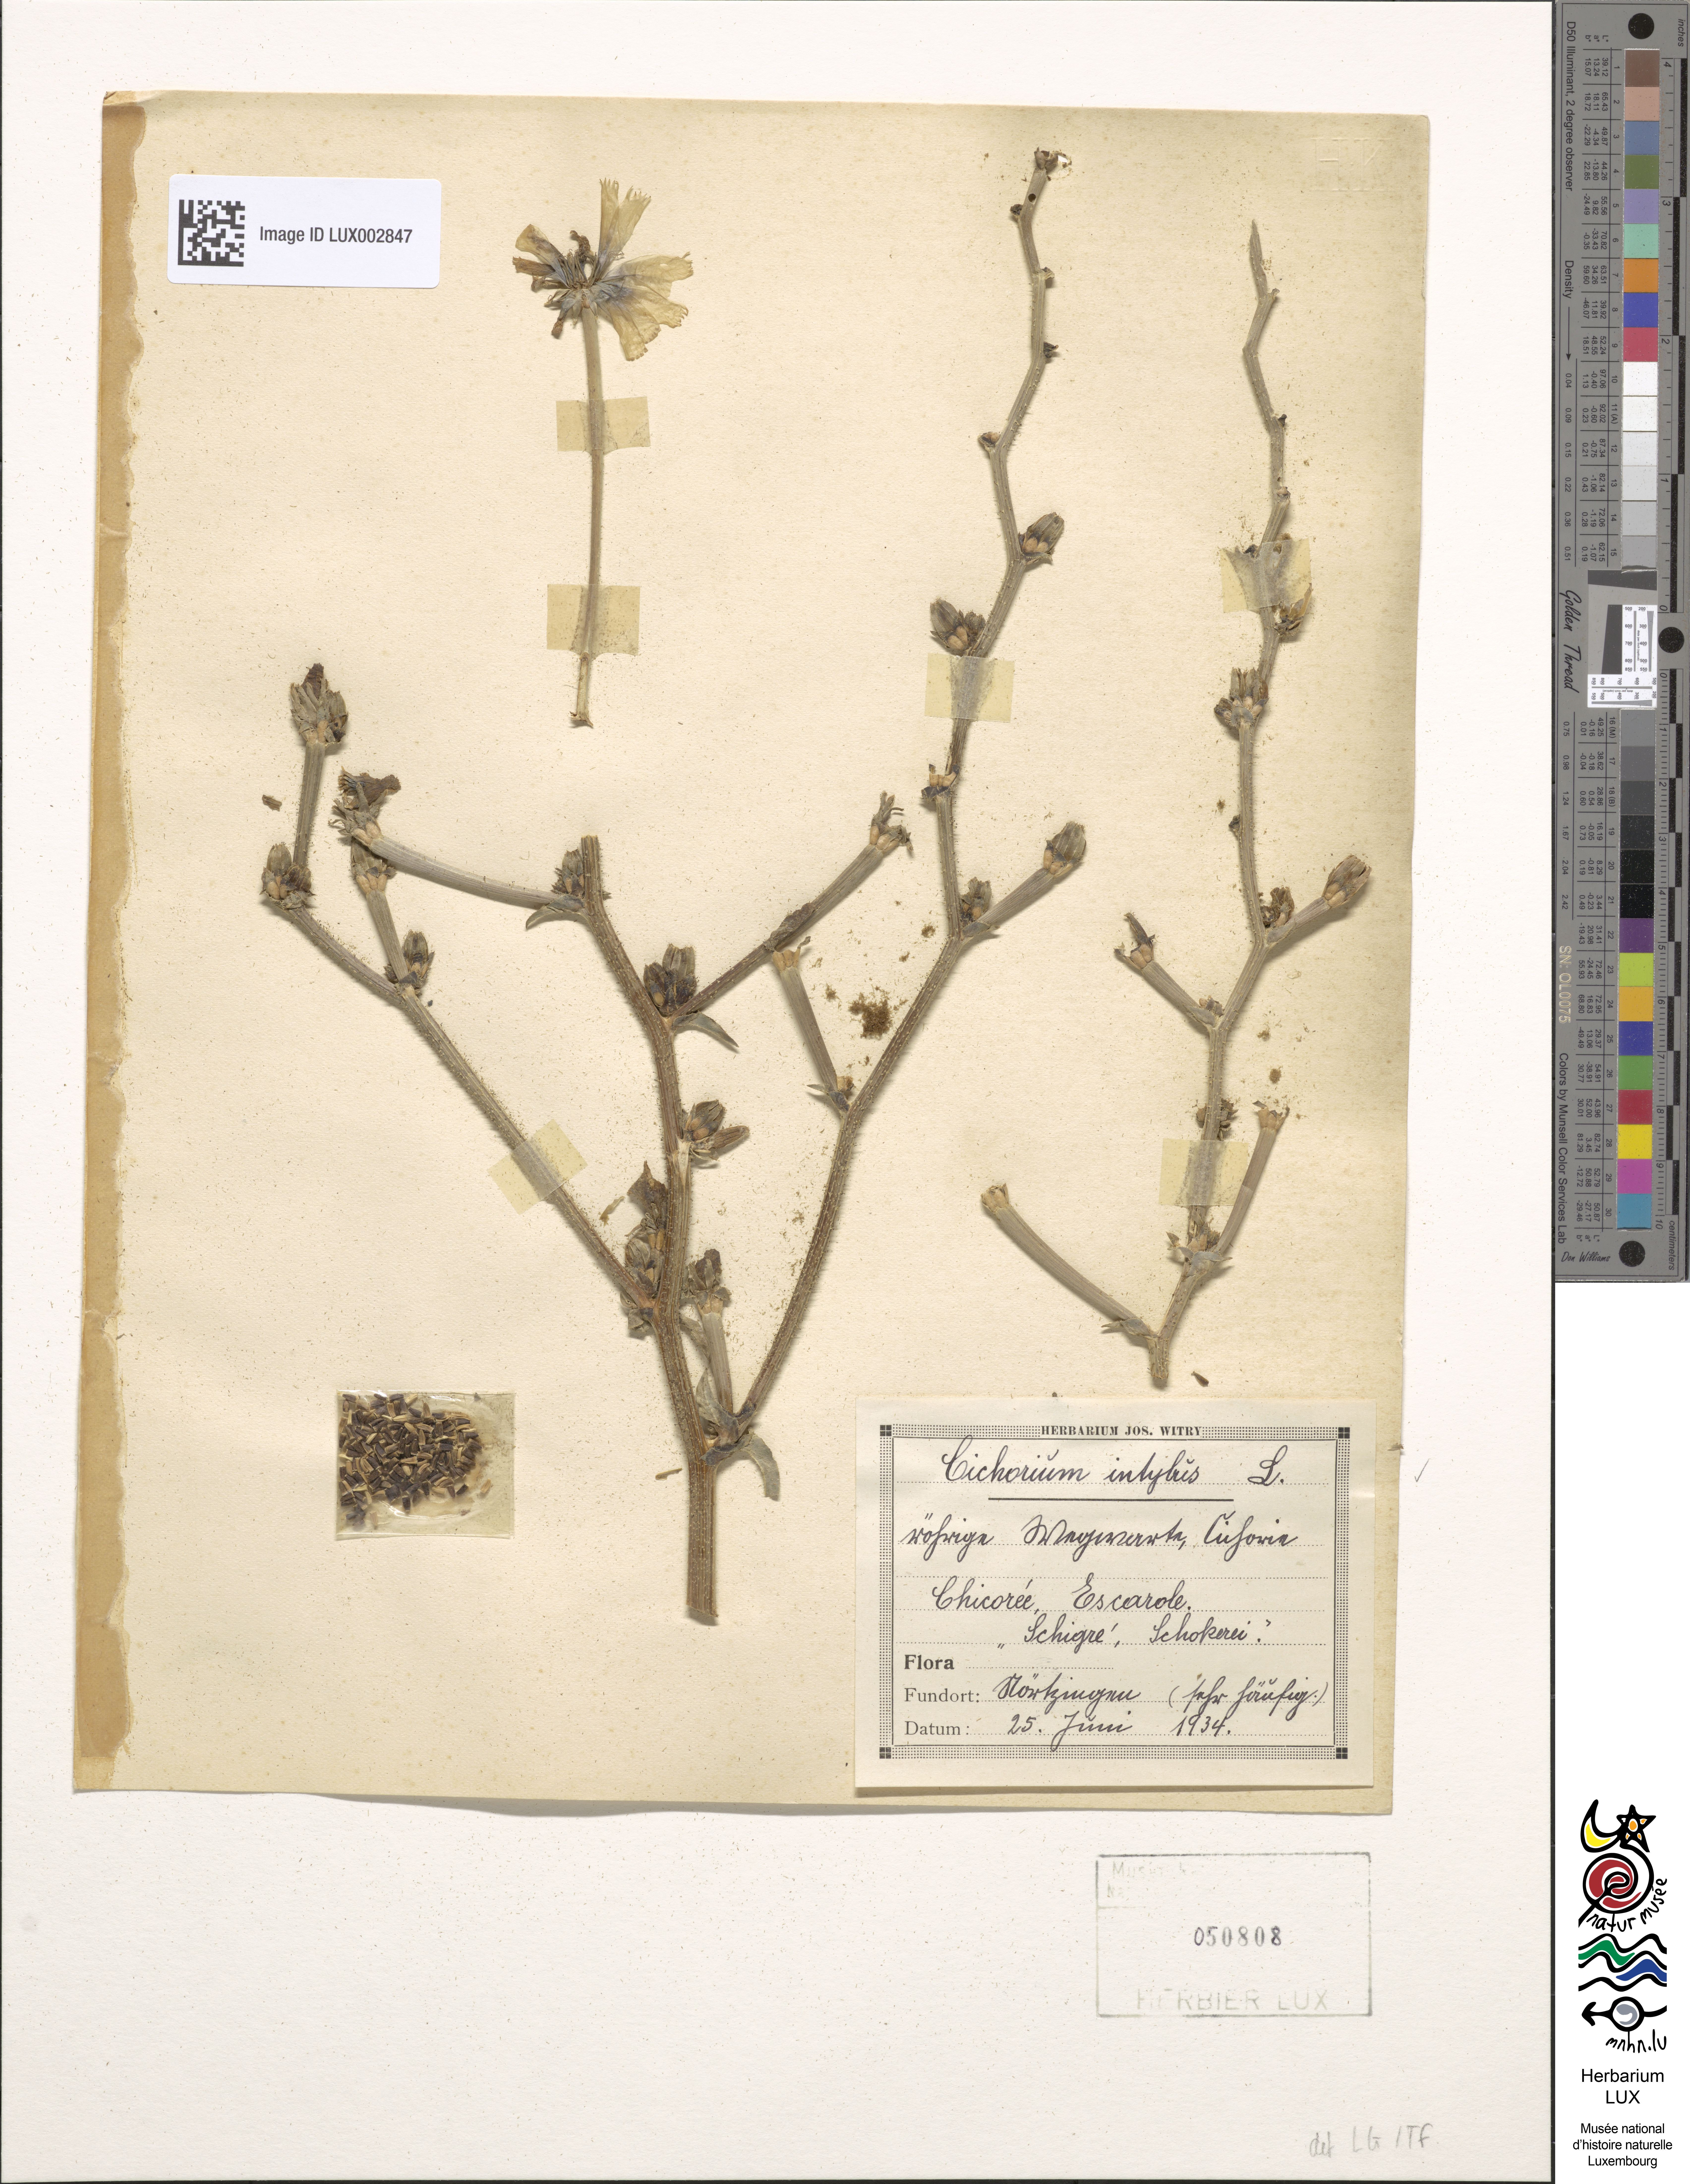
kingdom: Plantae
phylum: Tracheophyta
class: Magnoliopsida
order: Asterales
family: Asteraceae
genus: Cichorium
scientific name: Cichorium intybus
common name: Chicory
